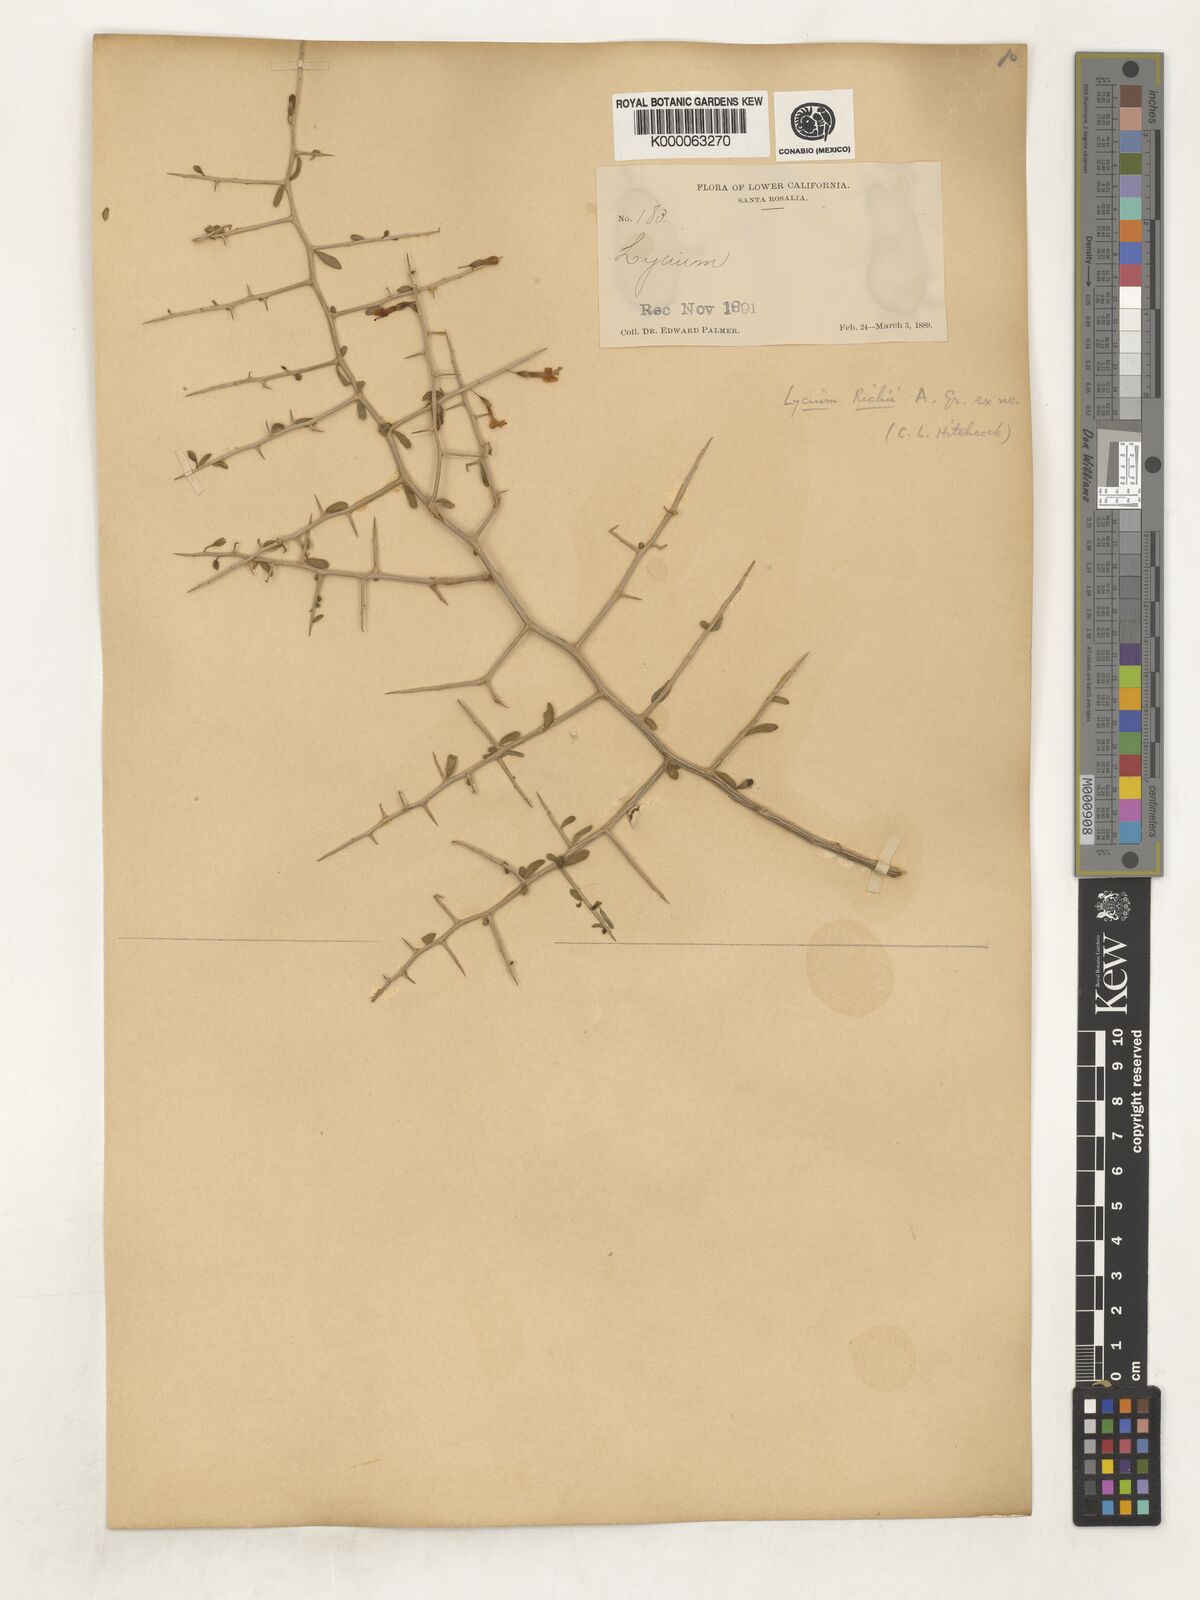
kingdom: Plantae
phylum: Tracheophyta
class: Magnoliopsida
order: Solanales
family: Solanaceae
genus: Lycium
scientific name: Lycium brevipes
